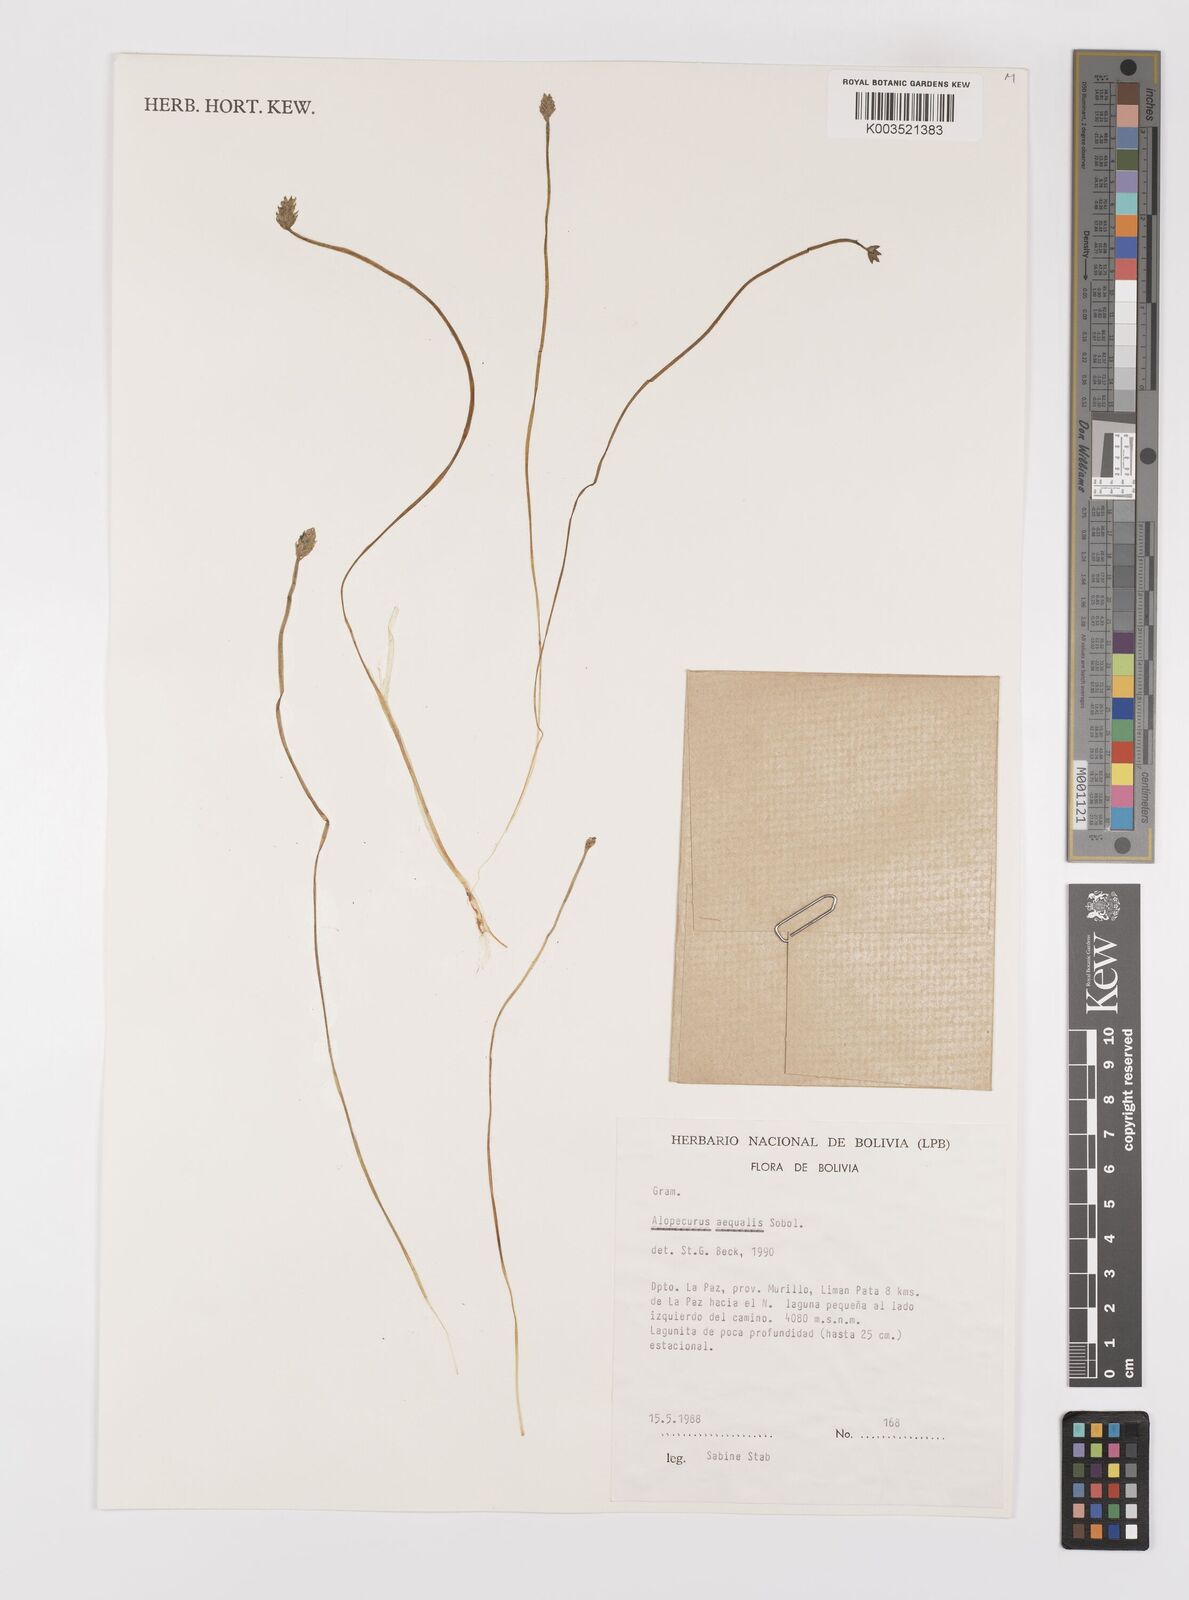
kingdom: Plantae
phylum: Tracheophyta
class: Liliopsida
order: Poales
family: Poaceae
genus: Alopecurus
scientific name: Alopecurus hitchcockii
